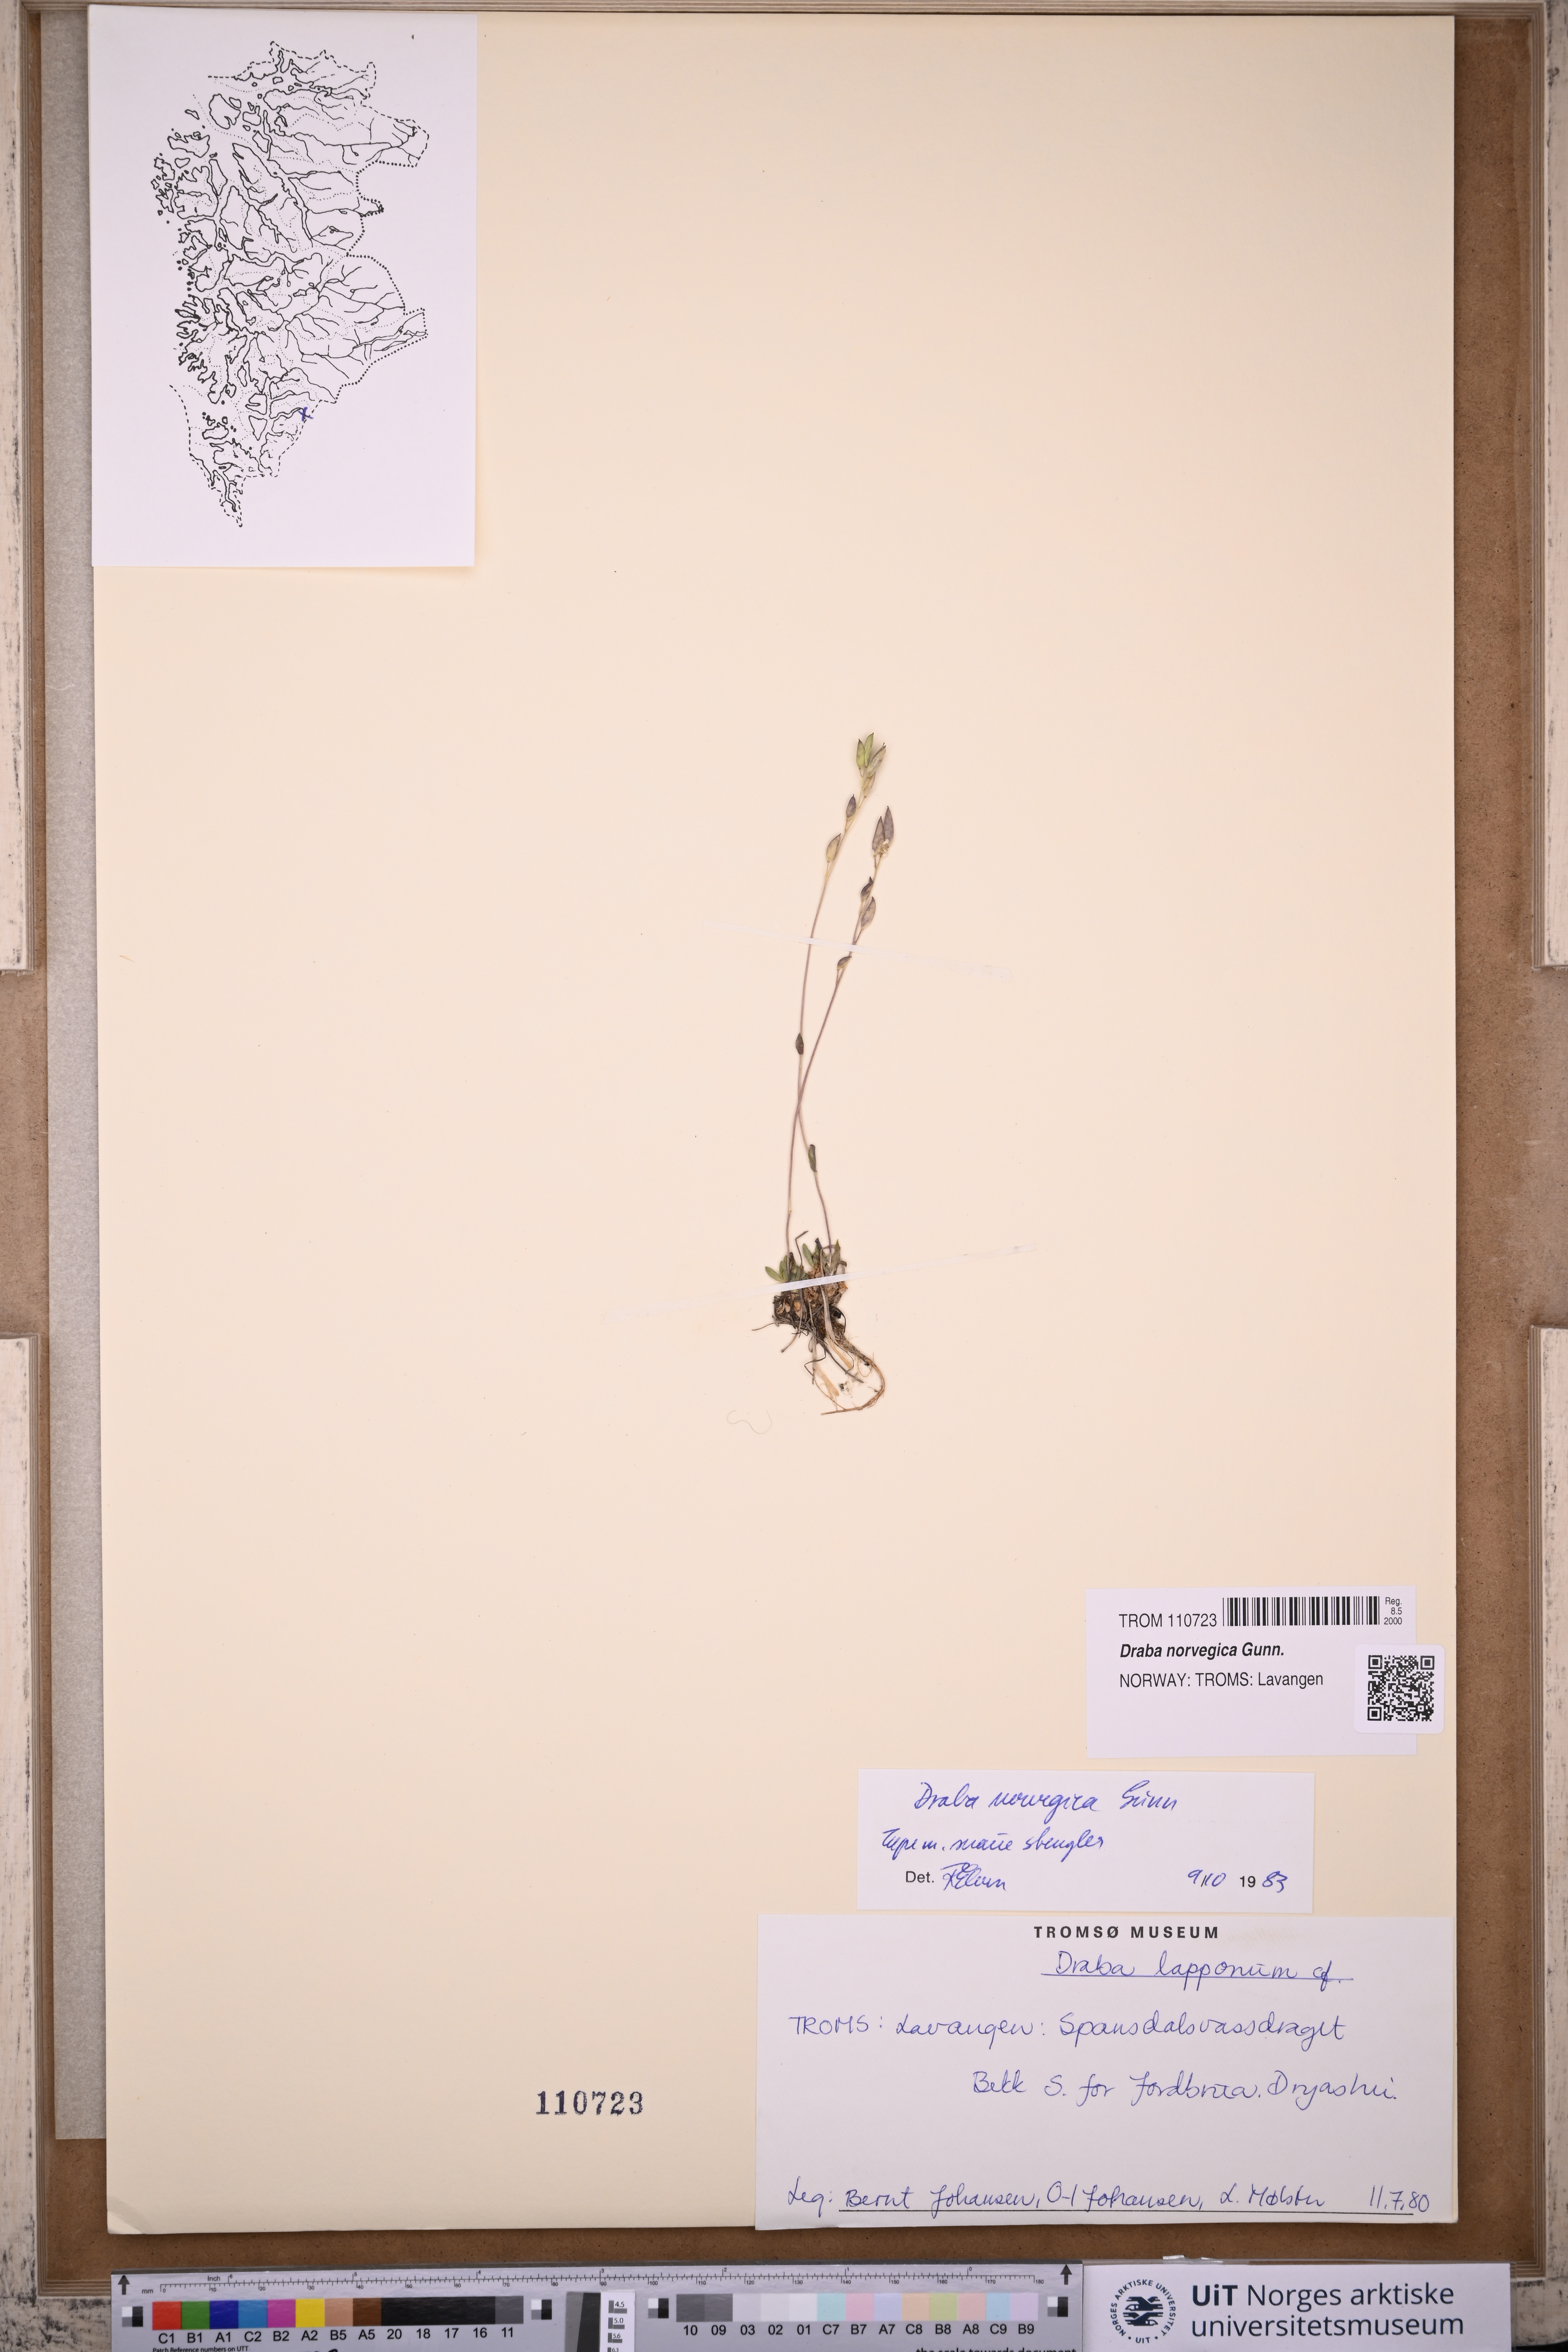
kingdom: Plantae
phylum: Tracheophyta
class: Magnoliopsida
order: Brassicales
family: Brassicaceae
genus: Draba
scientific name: Draba norvegica
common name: Rock whitlowgrass
